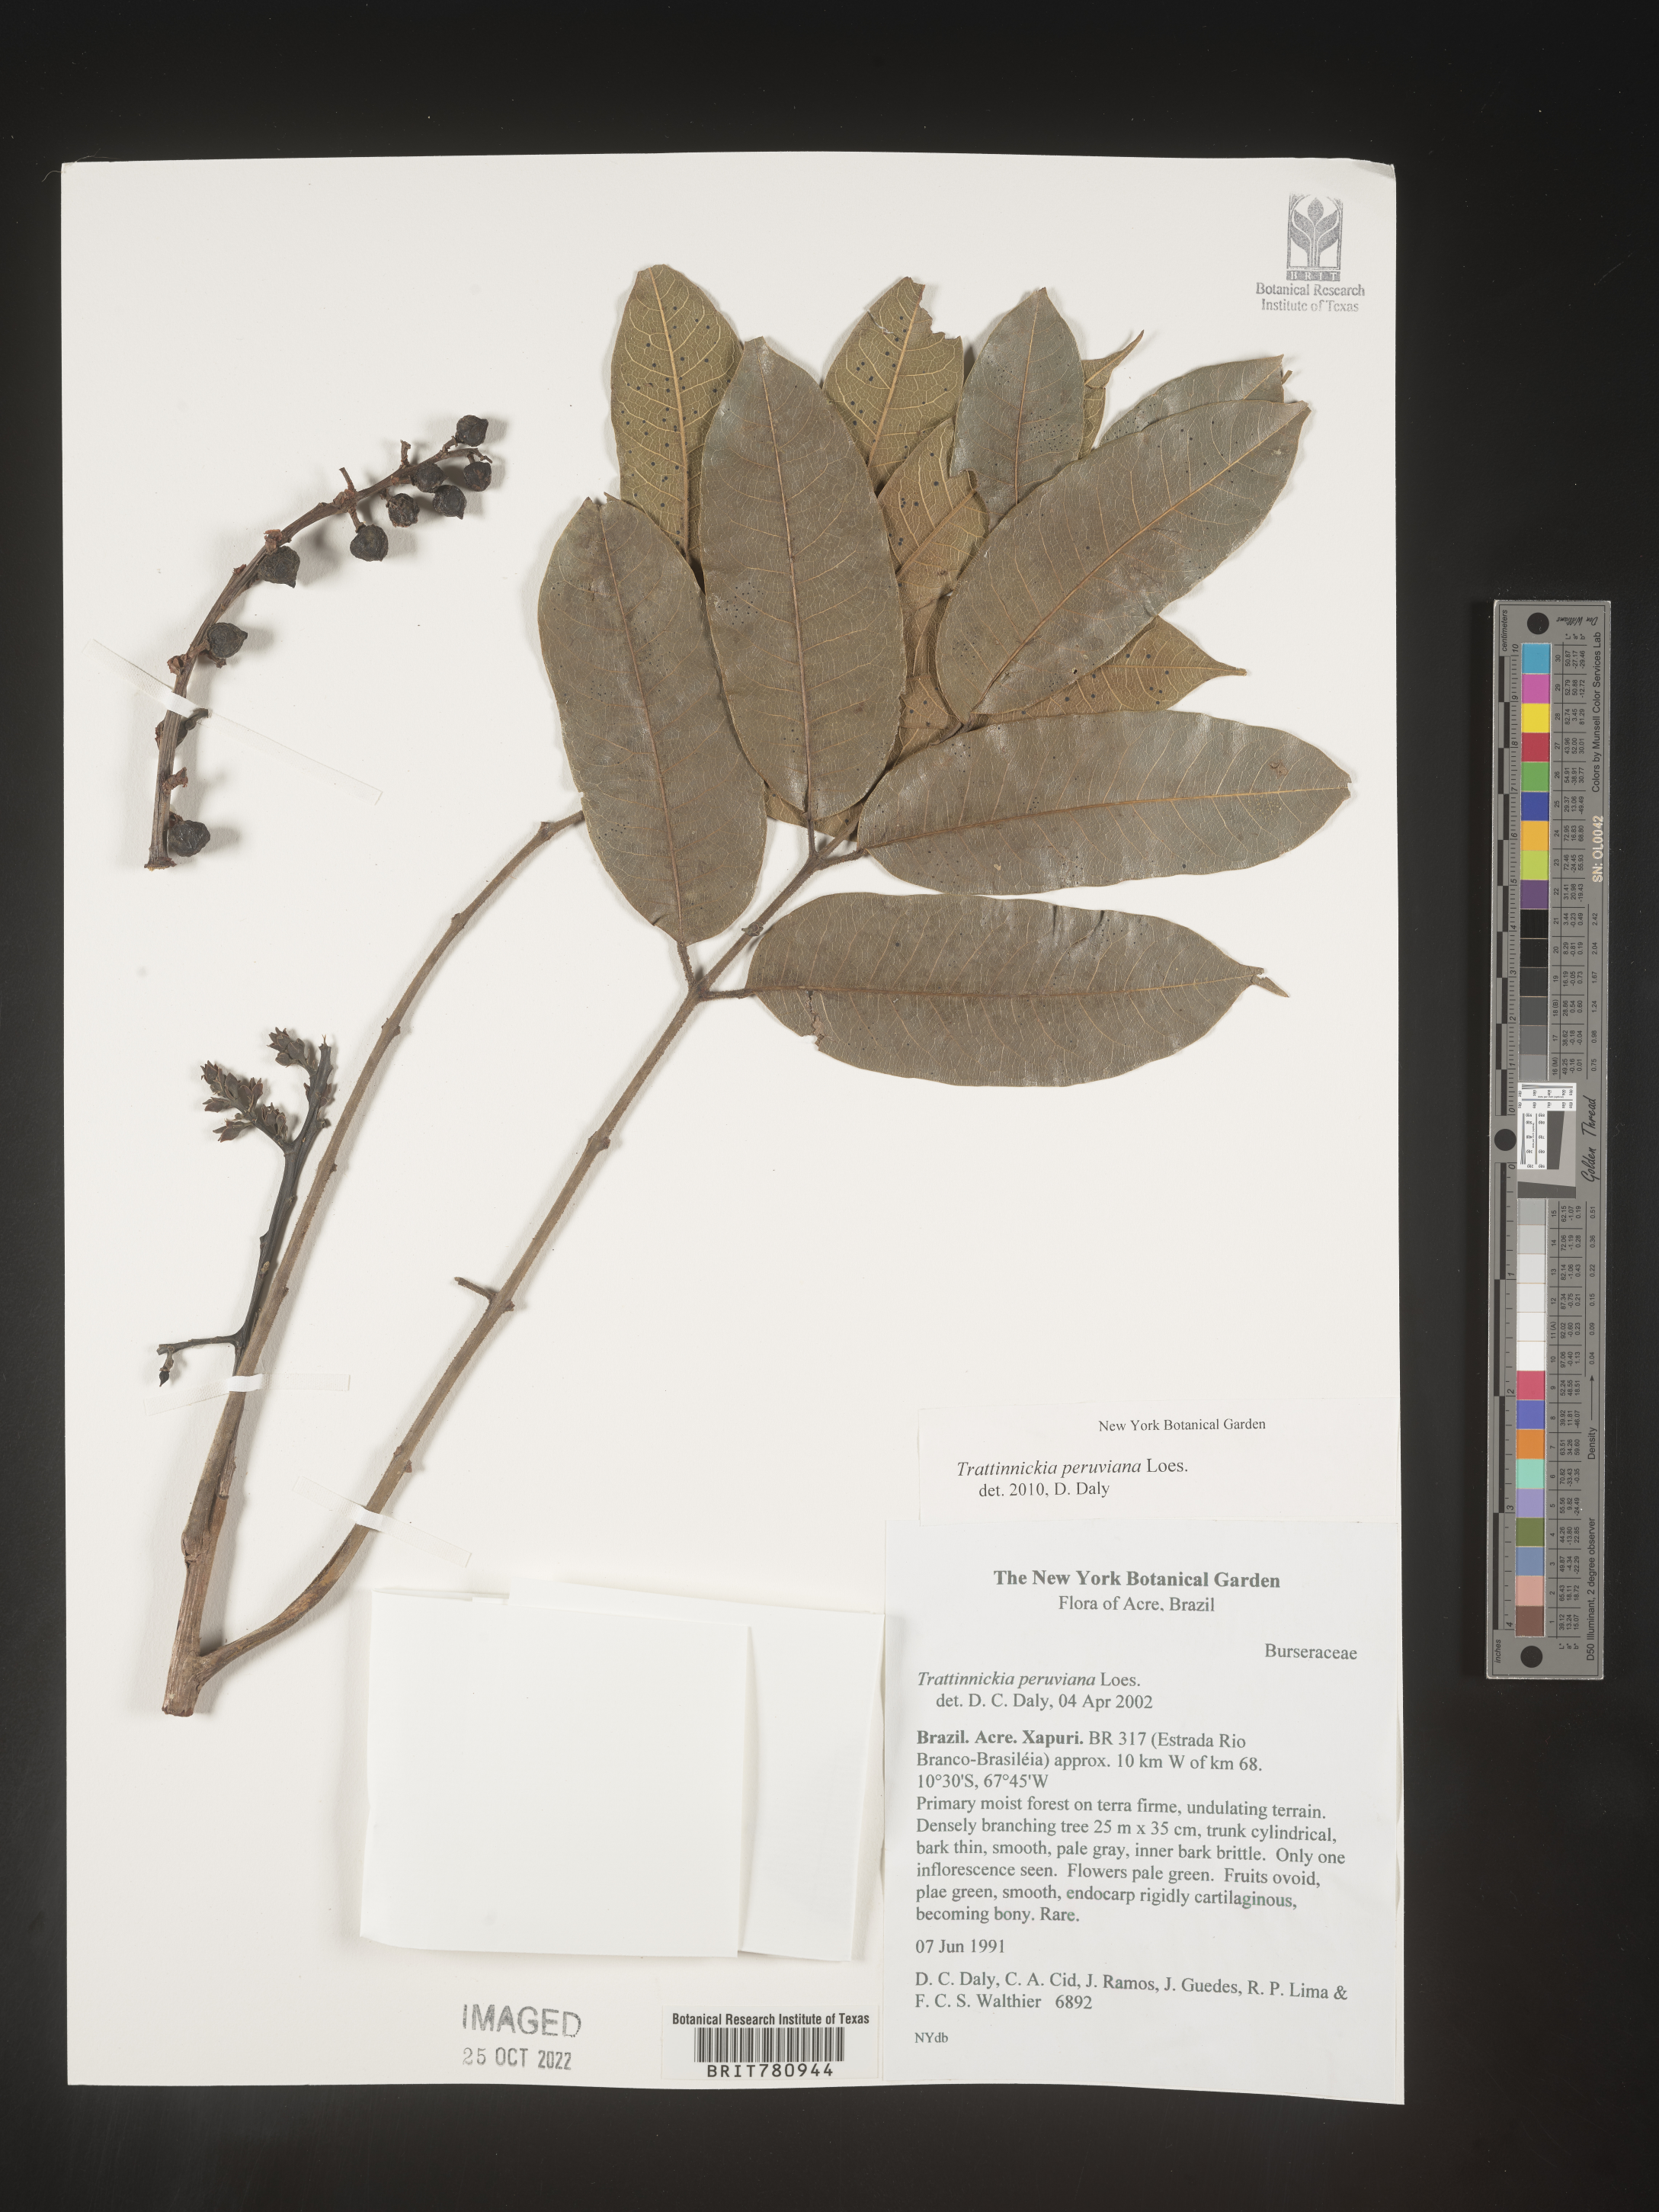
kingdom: Plantae
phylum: Tracheophyta
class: Magnoliopsida
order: Sapindales
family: Burseraceae
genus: Trattinnickia
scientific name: Trattinnickia
